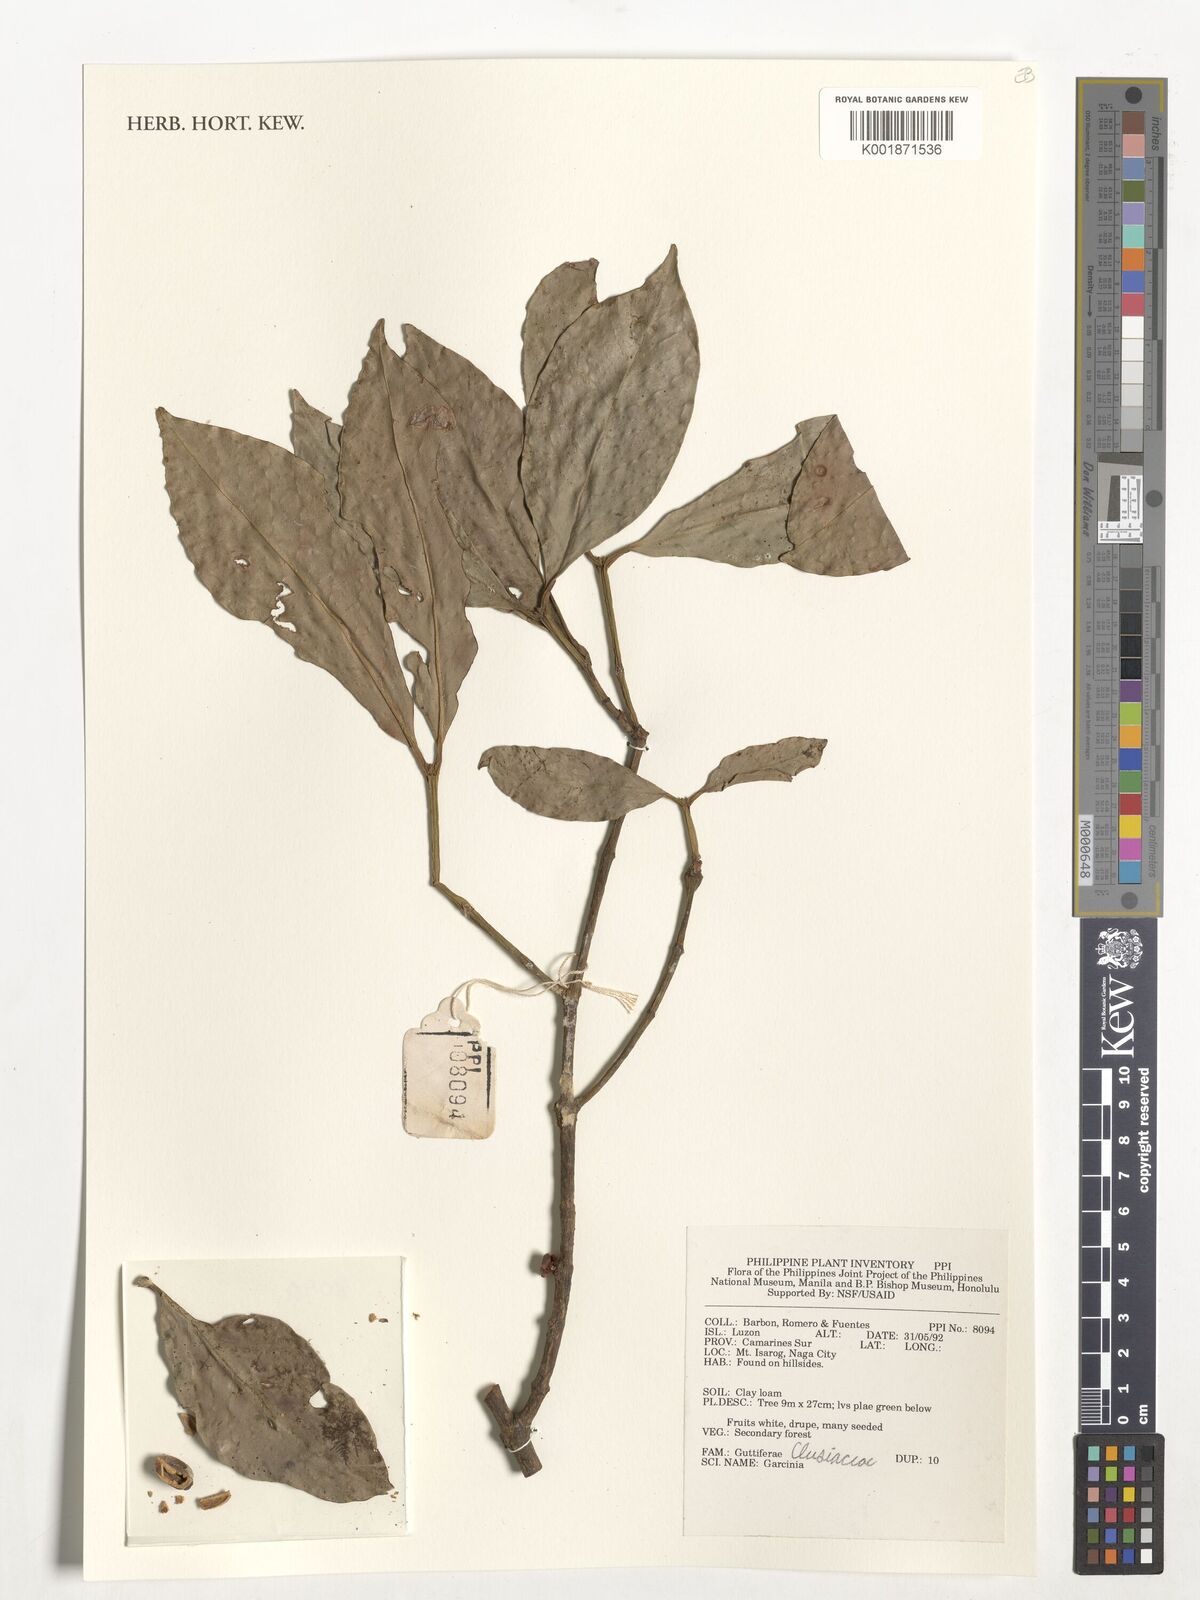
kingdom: Plantae
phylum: Tracheophyta
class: Magnoliopsida
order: Malpighiales
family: Clusiaceae
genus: Garcinia
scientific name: Garcinia
